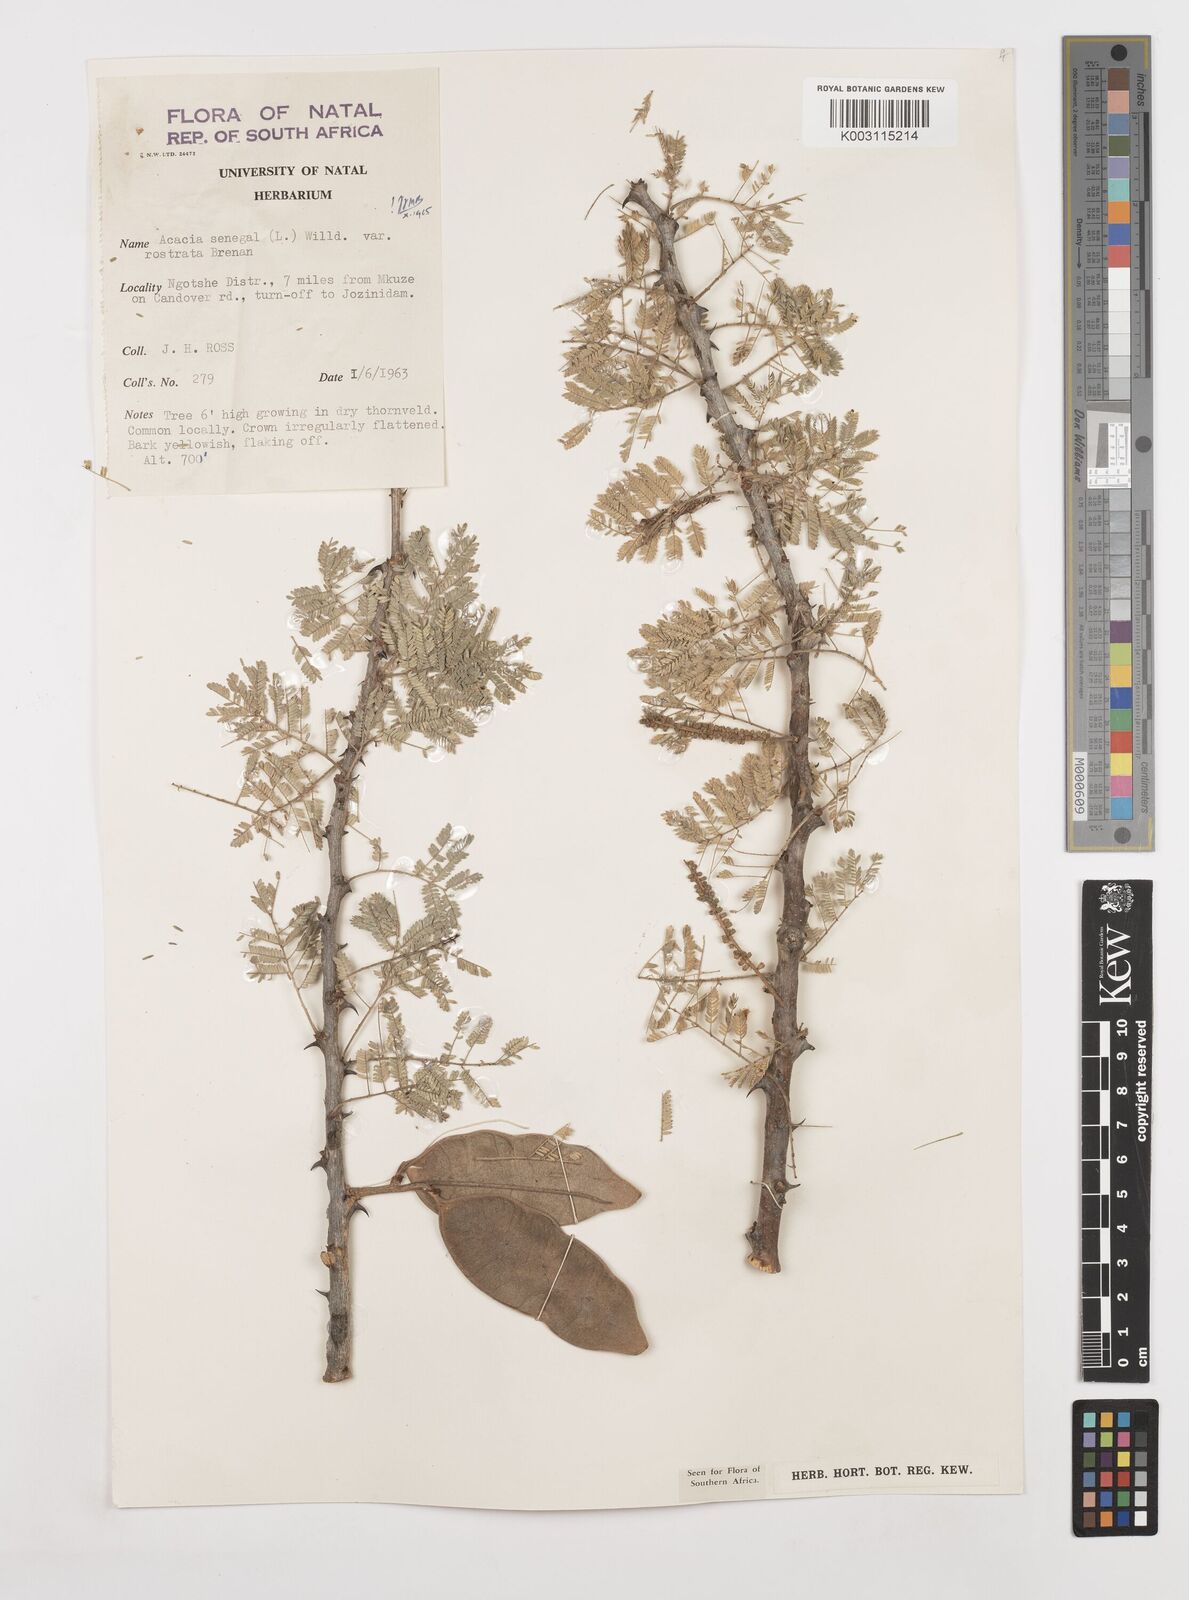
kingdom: Plantae
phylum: Tracheophyta
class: Magnoliopsida
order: Fabales
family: Fabaceae
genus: Senegalia
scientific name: Senegalia senegal
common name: Senegal-gum
